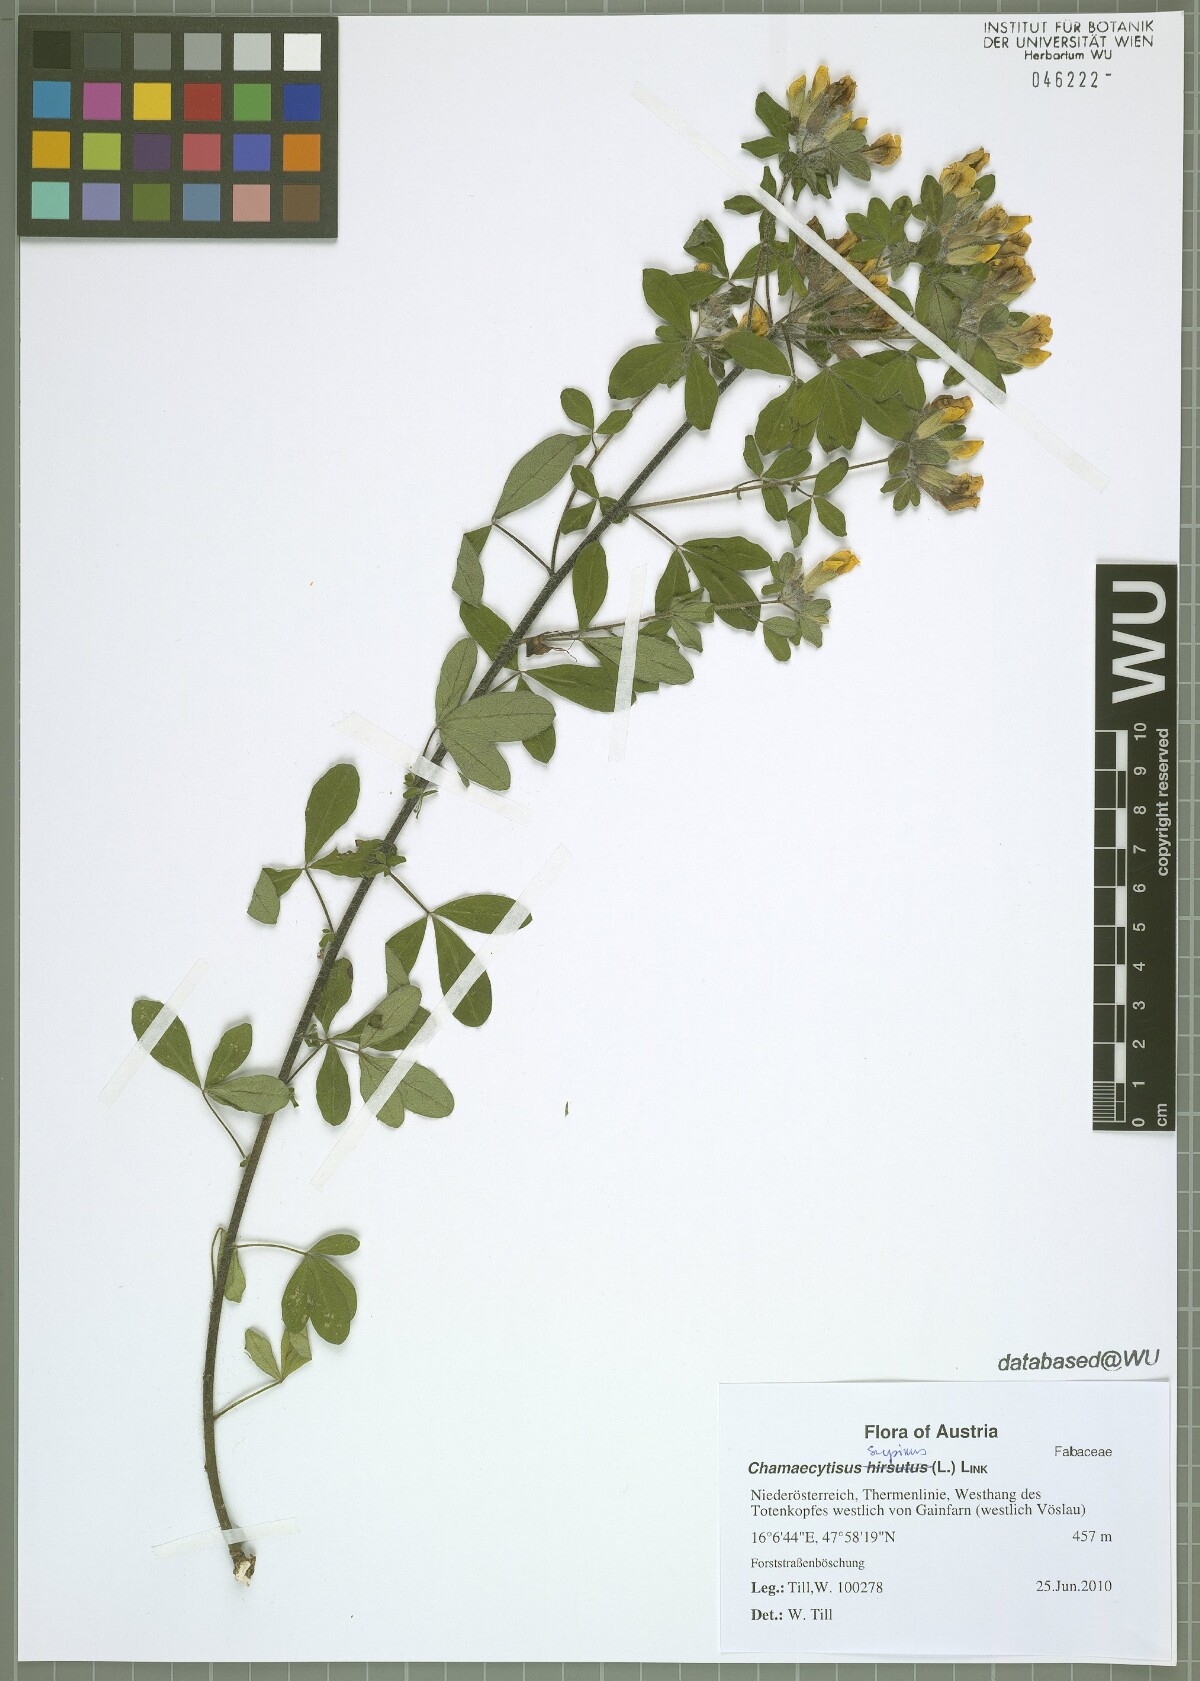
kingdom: Plantae
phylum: Tracheophyta
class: Magnoliopsida
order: Fabales
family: Fabaceae
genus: Chamaecytisus
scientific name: Chamaecytisus supinus
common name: Clustered broom
